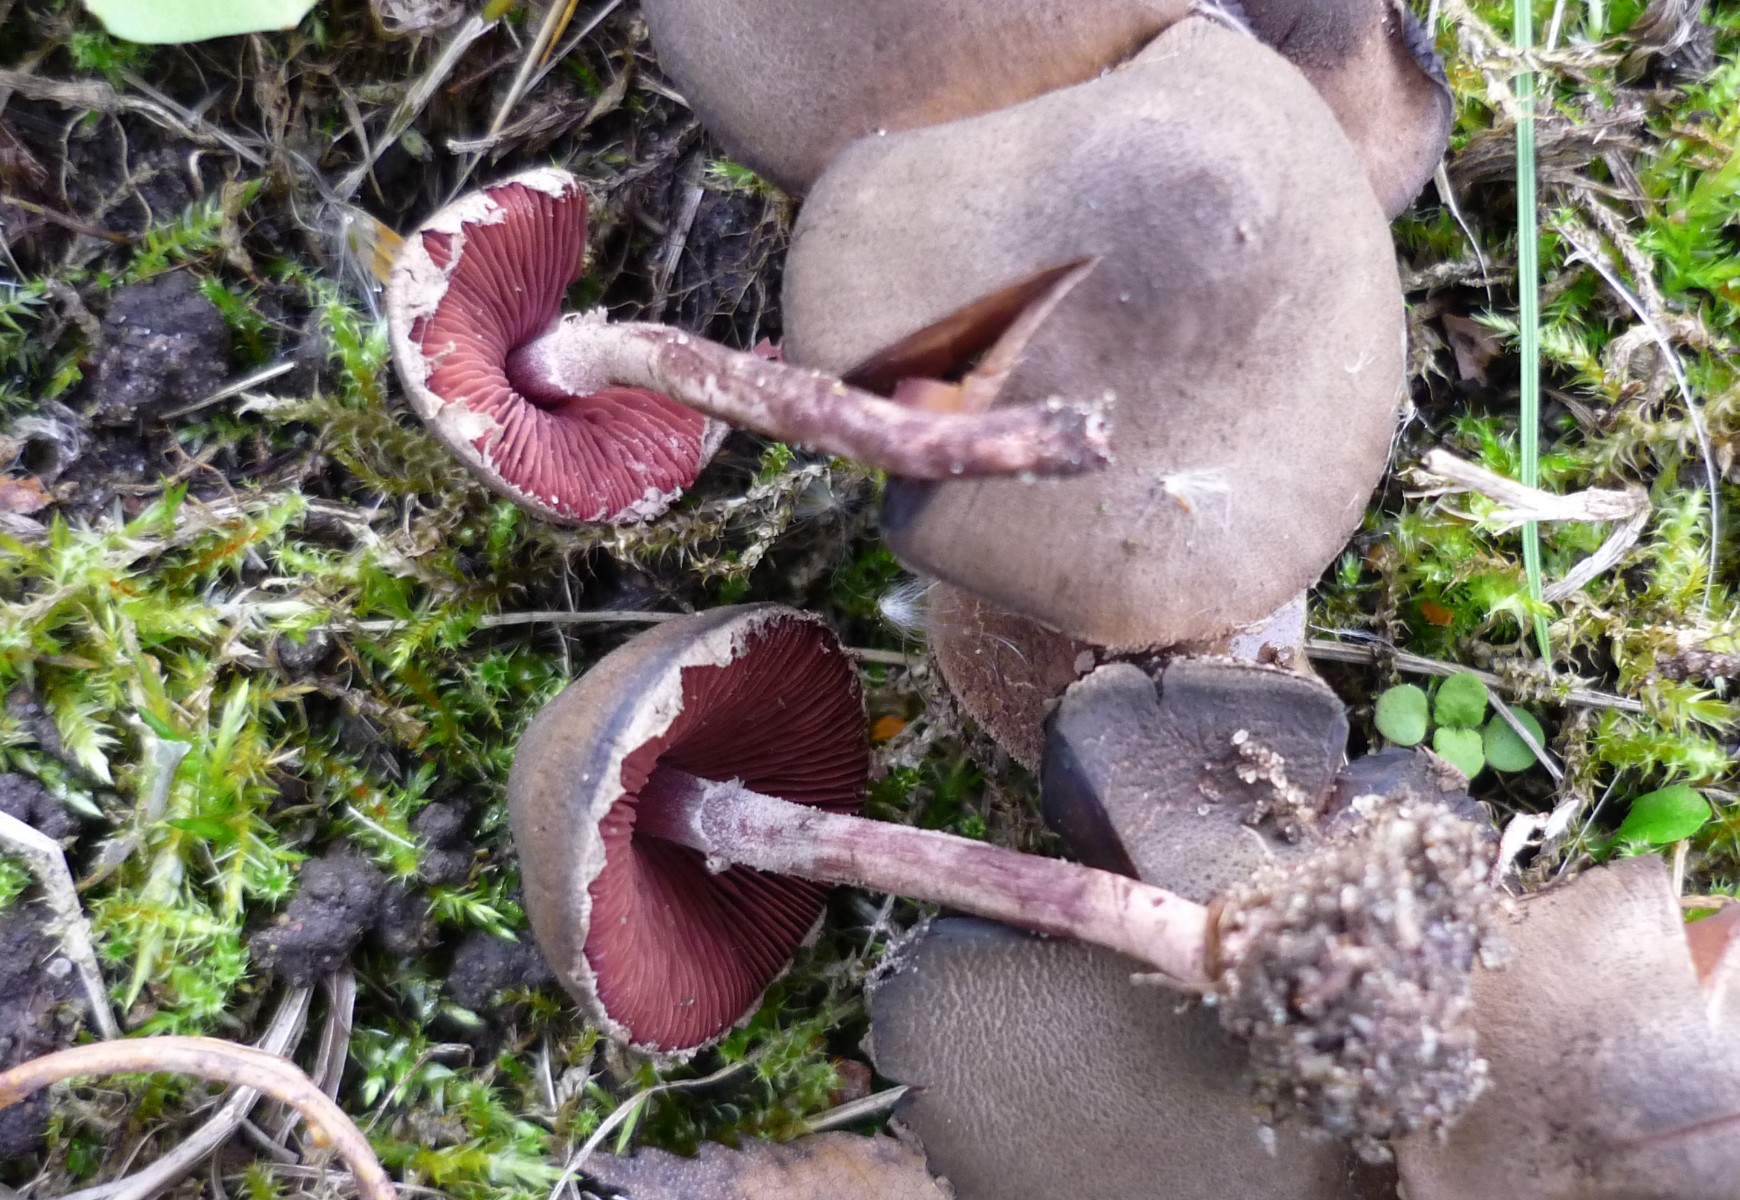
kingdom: Fungi
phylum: Basidiomycota
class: Agaricomycetes
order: Agaricales
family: Agaricaceae
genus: Melanophyllum
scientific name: Melanophyllum haematospermum
